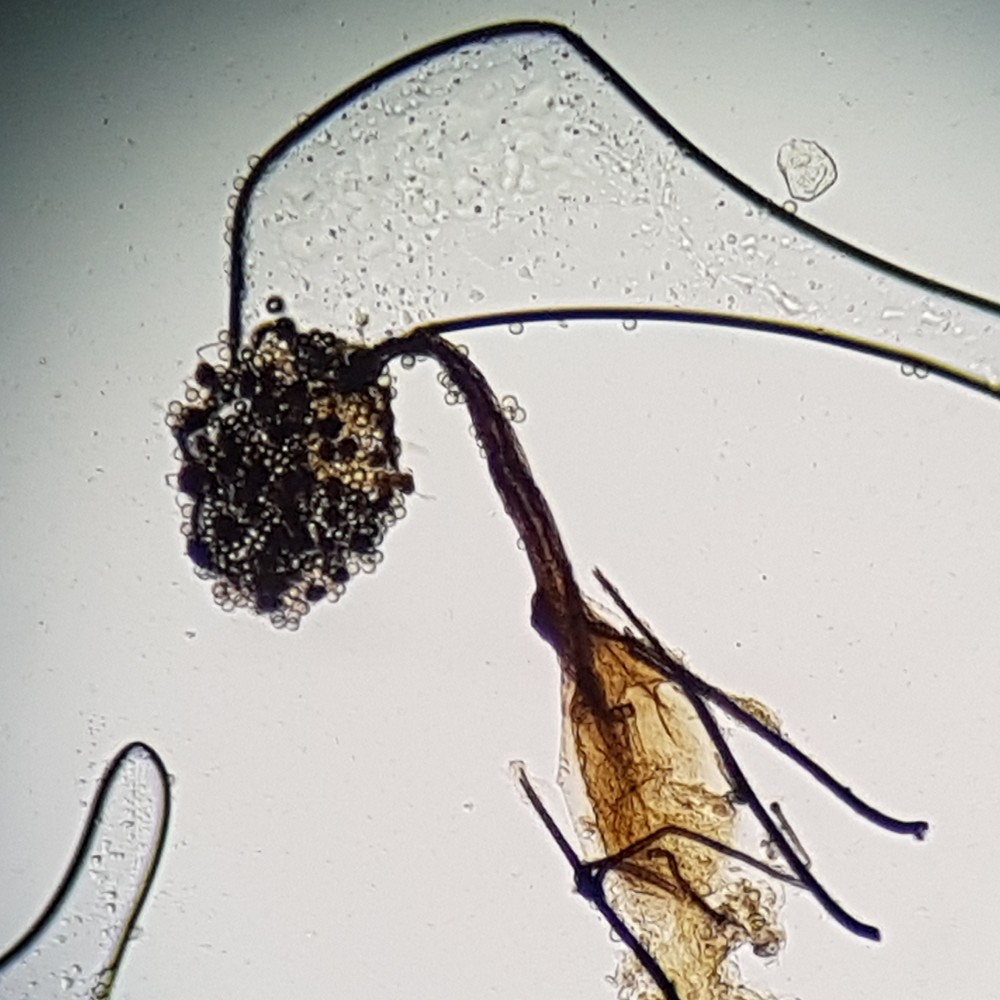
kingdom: Protozoa
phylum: Mycetozoa
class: Myxomycetes
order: Cribrariales
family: Cribrariaceae
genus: Cribraria
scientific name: Cribraria microcarpa
